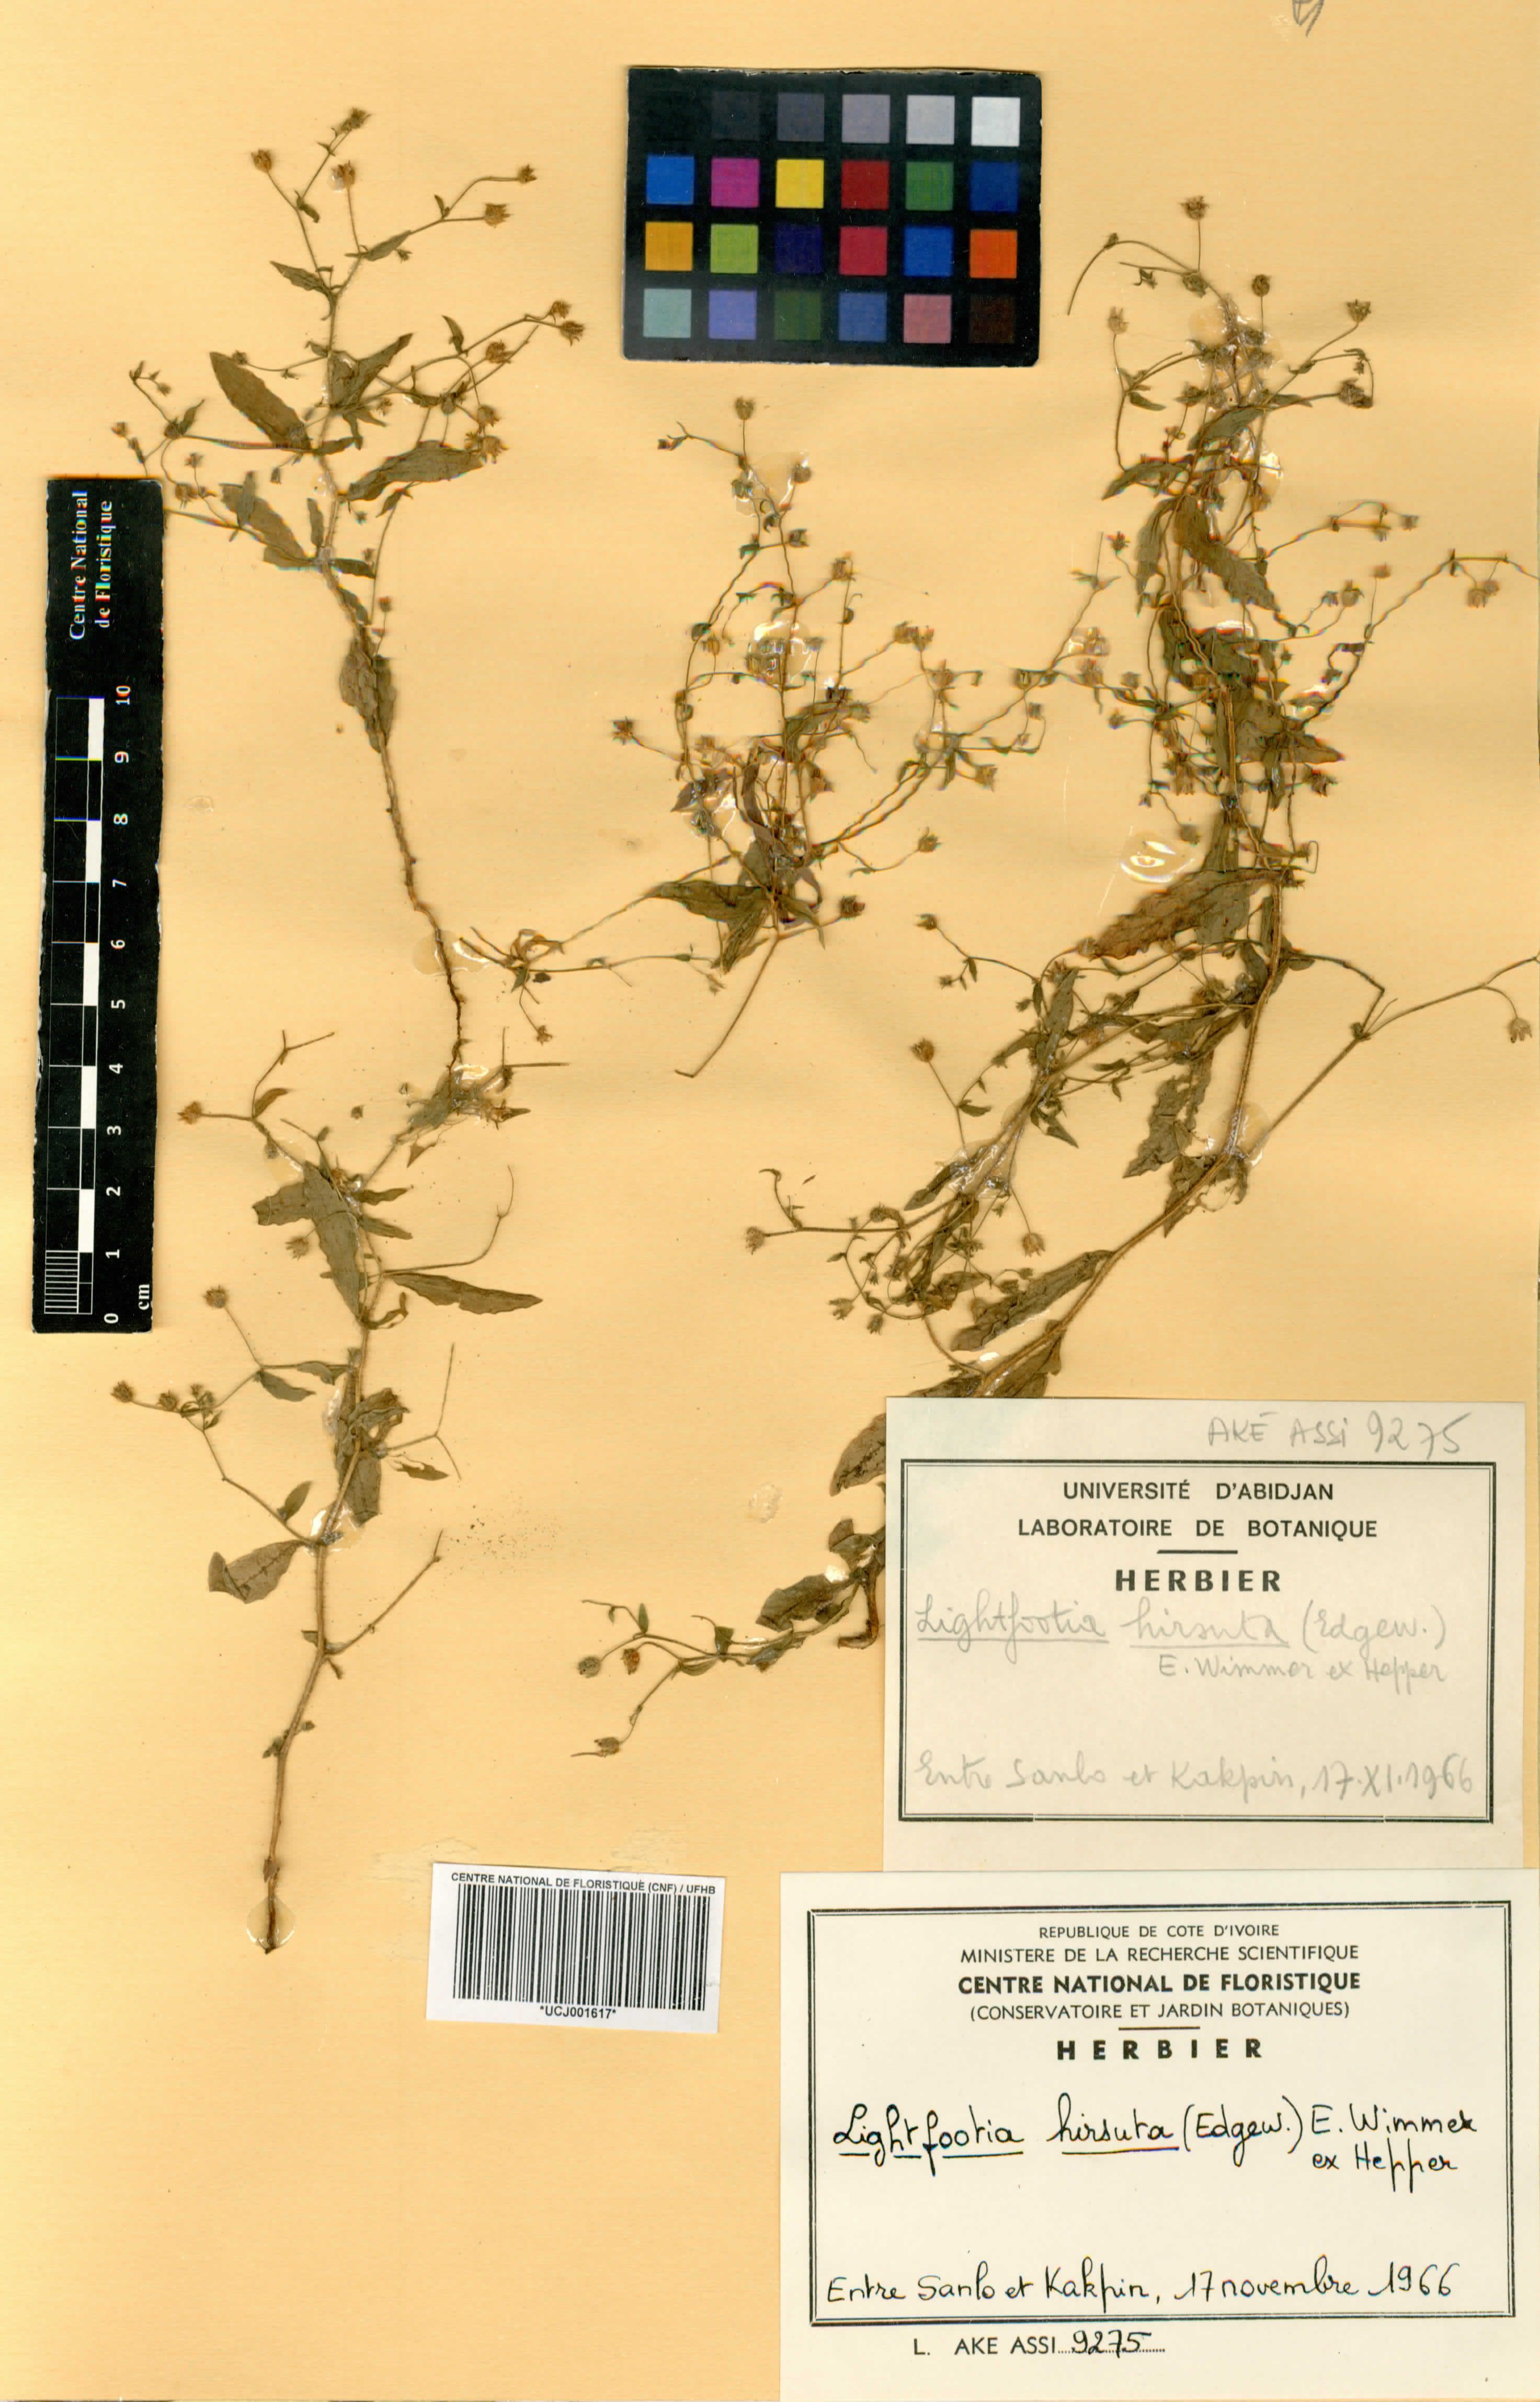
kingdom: Plantae
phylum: Tracheophyta
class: Magnoliopsida
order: Asterales
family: Campanulaceae
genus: Wahlenbergia
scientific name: Wahlenbergia hirsuta
